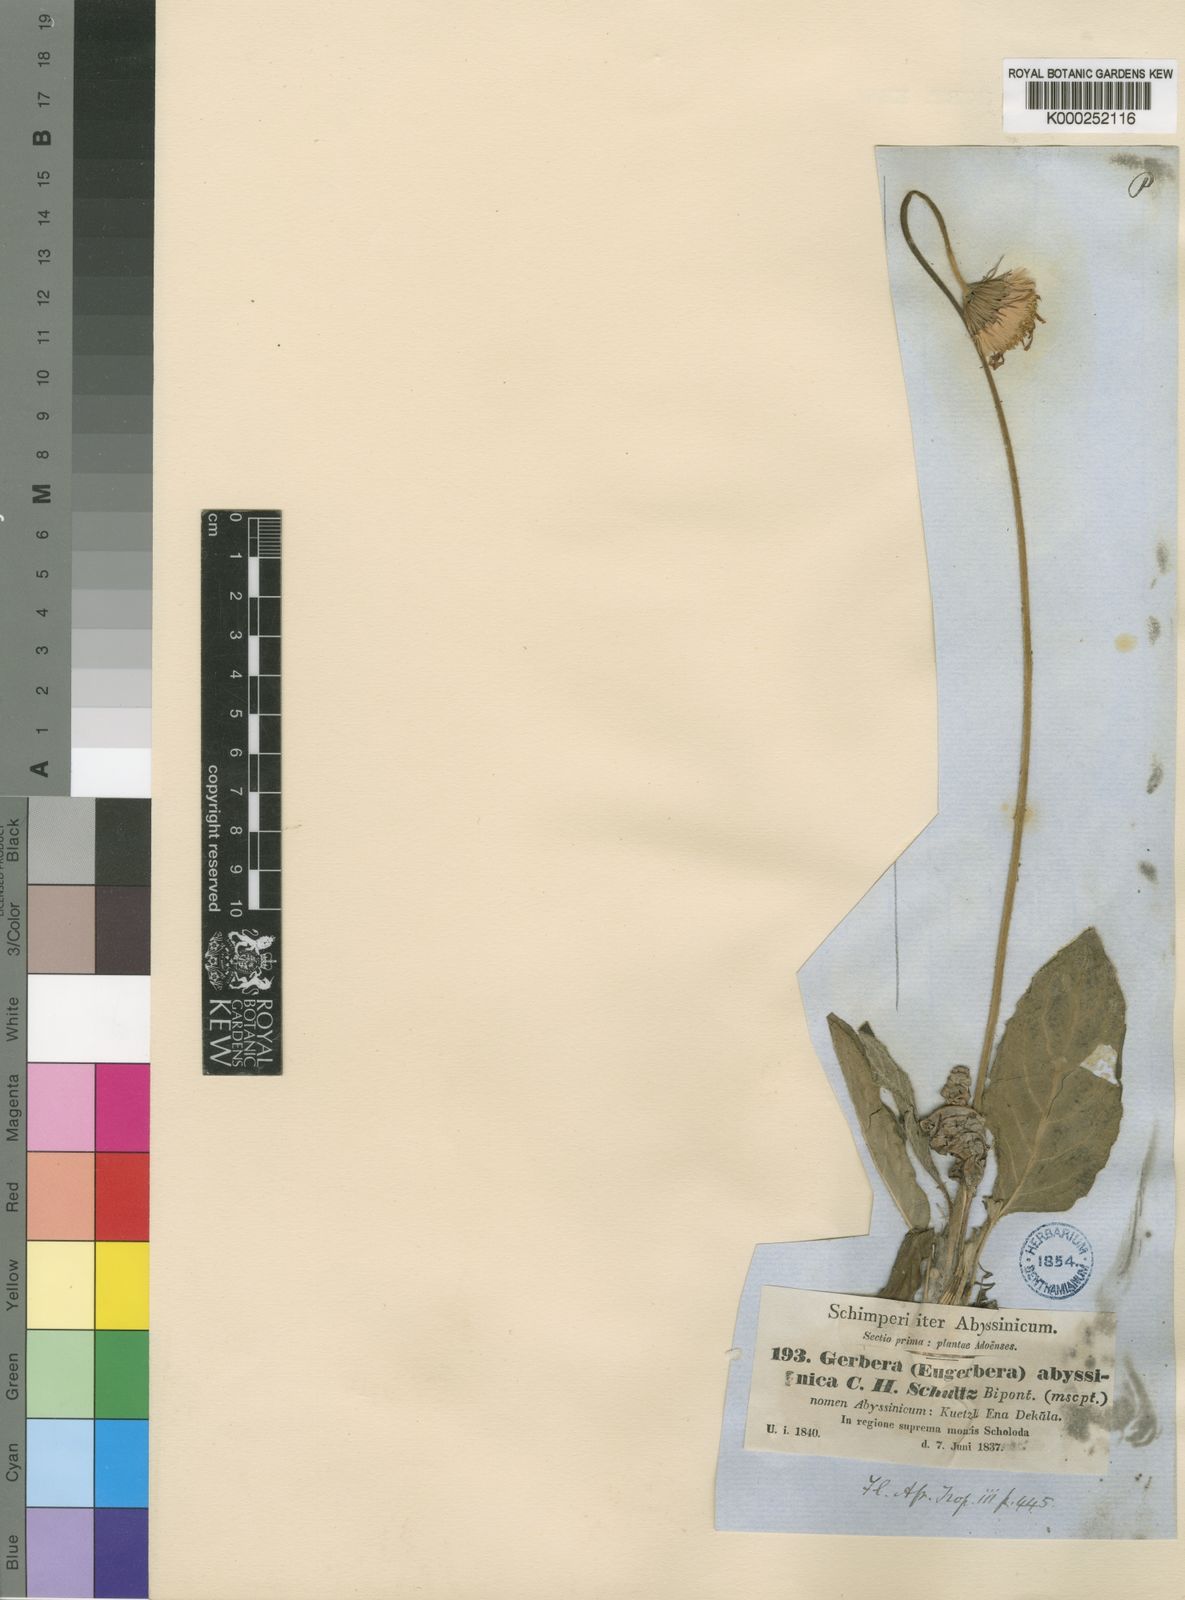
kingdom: Plantae
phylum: Tracheophyta
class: Magnoliopsida
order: Asterales
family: Asteraceae
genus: Gerbera
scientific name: Gerbera viridifolia
